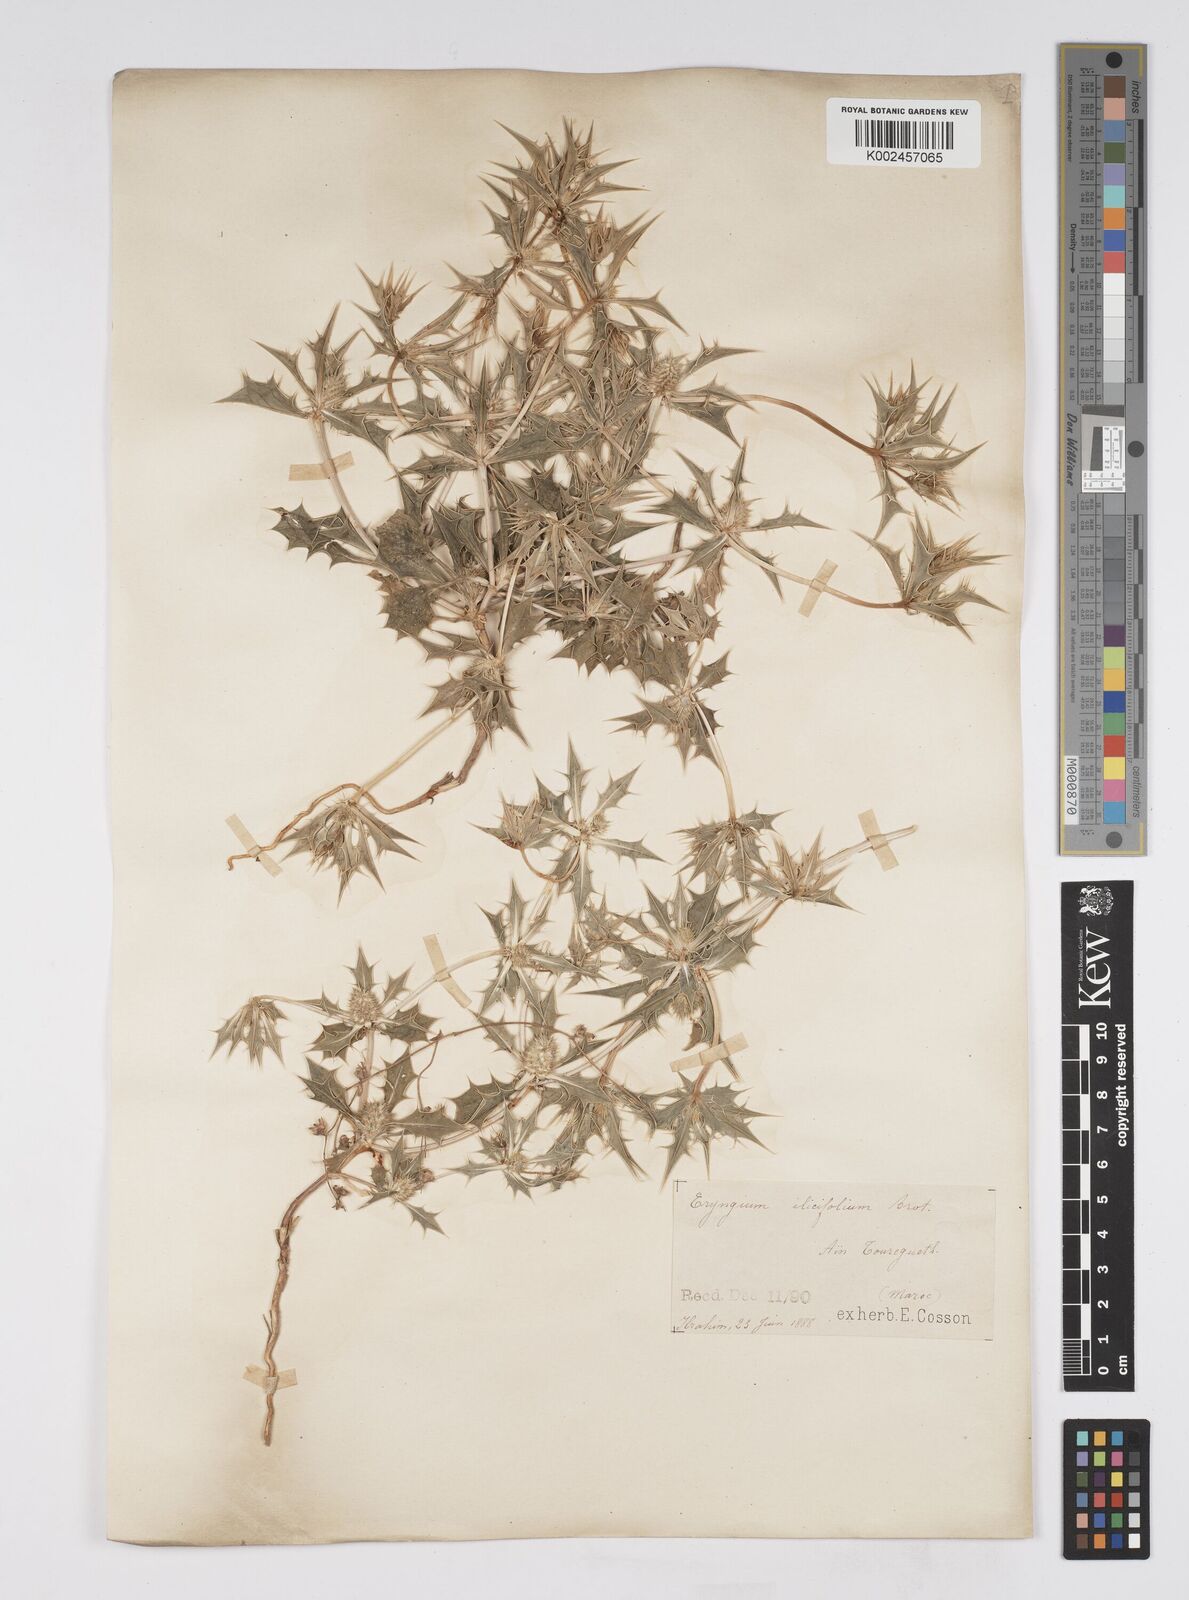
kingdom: Plantae
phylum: Tracheophyta
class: Magnoliopsida
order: Apiales
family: Apiaceae
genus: Eryngium
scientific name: Eryngium
